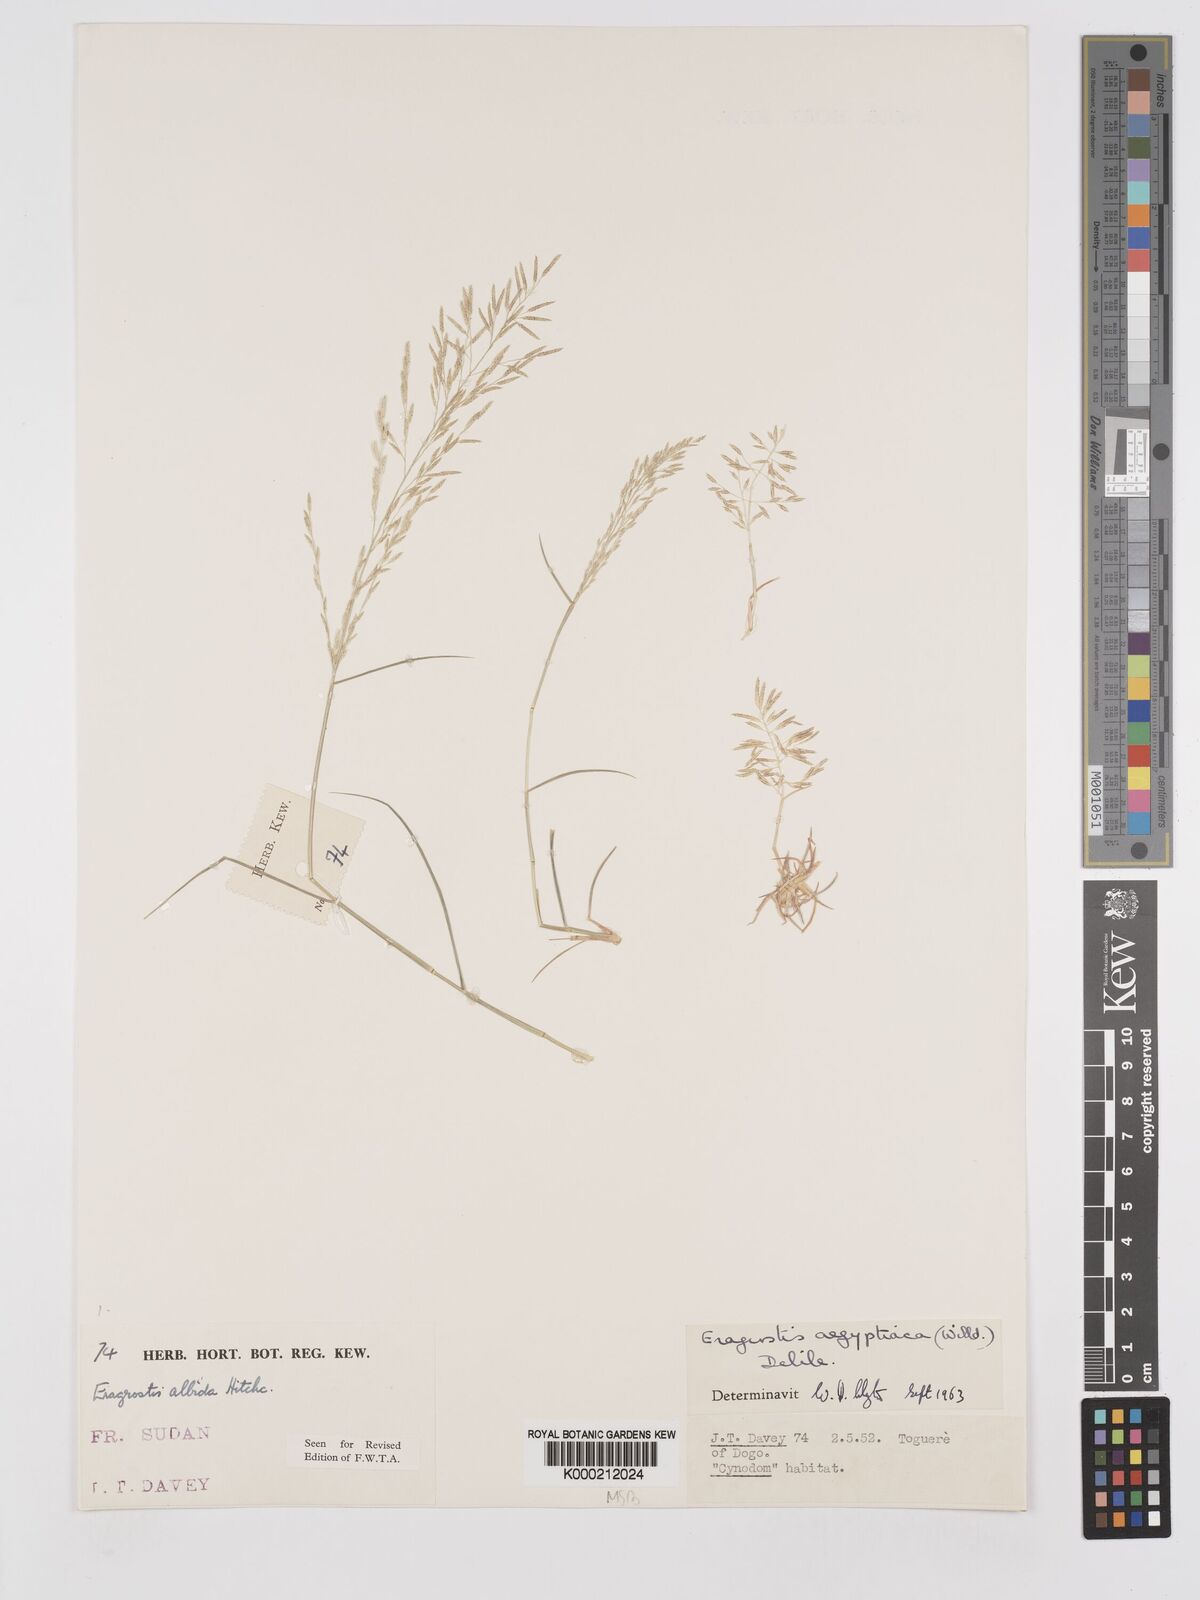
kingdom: Plantae
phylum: Tracheophyta
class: Liliopsida
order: Poales
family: Poaceae
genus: Eragrostis
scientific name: Eragrostis aegyptiaca
